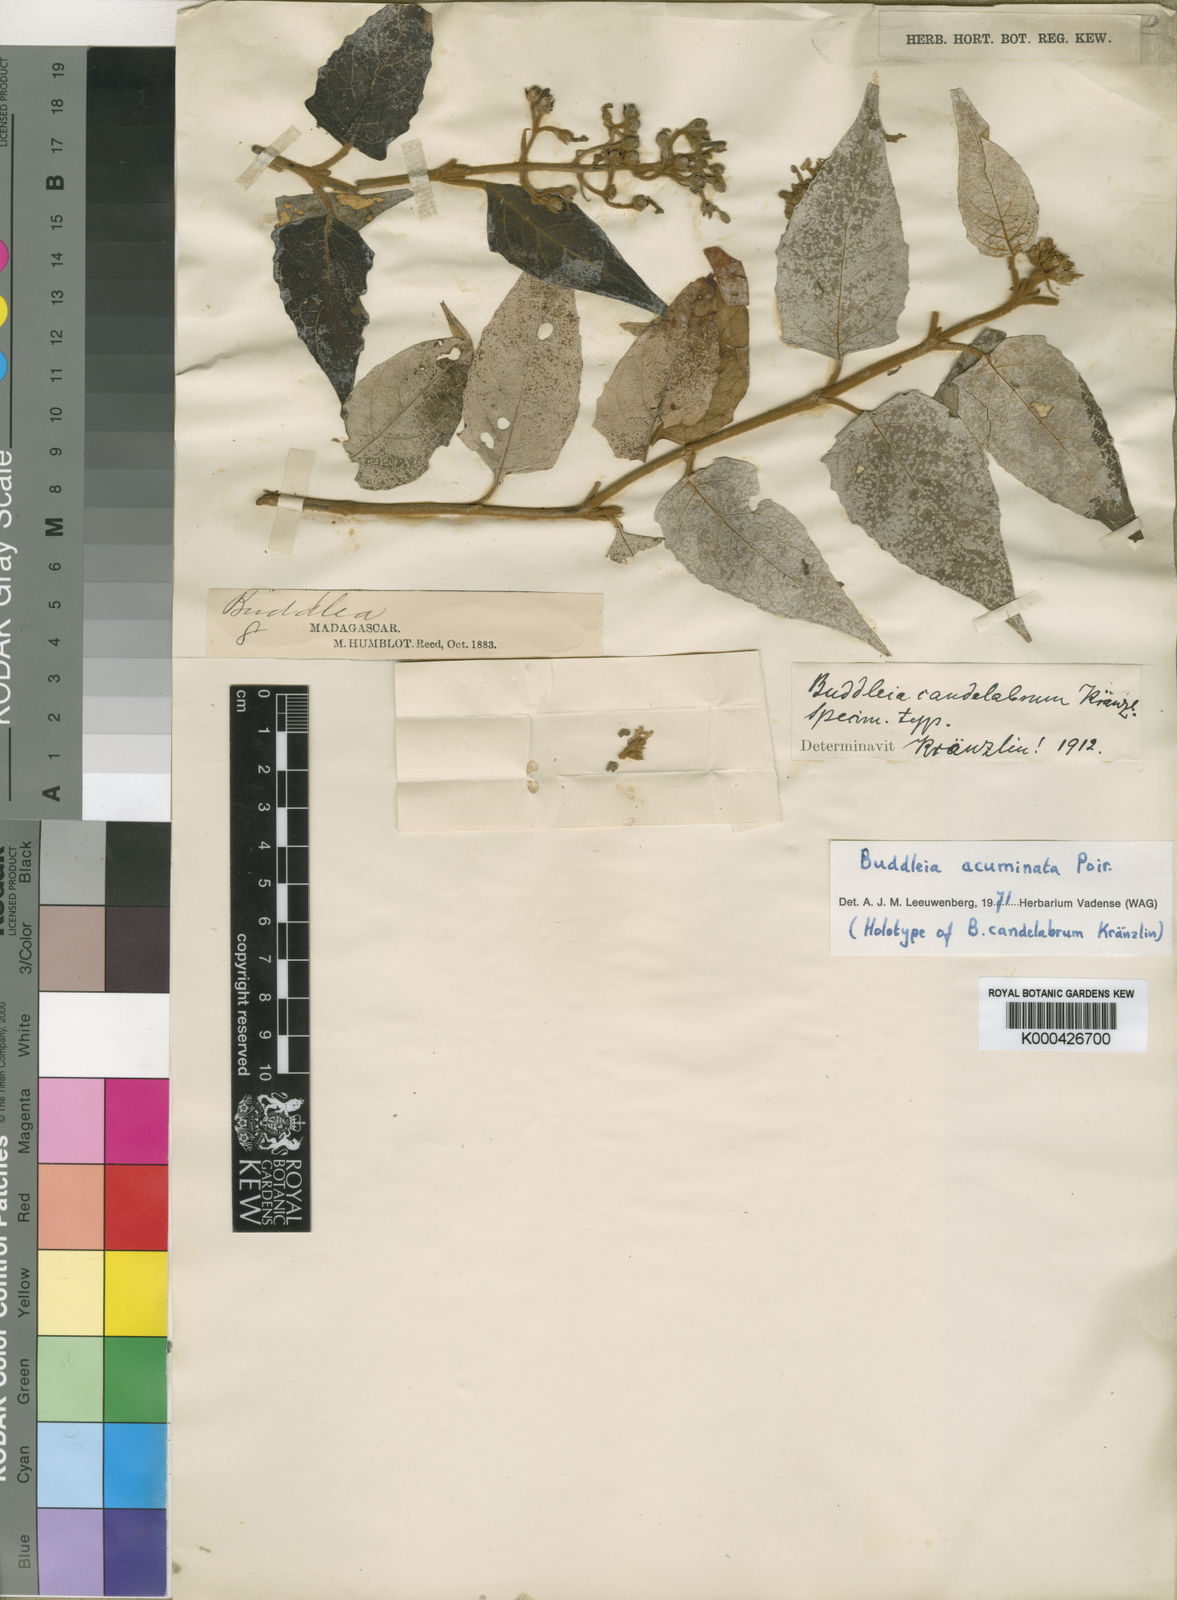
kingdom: Plantae
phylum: Tracheophyta
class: Magnoliopsida
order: Lamiales
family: Scrophulariaceae
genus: Buddleja
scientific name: Buddleja acuminata
